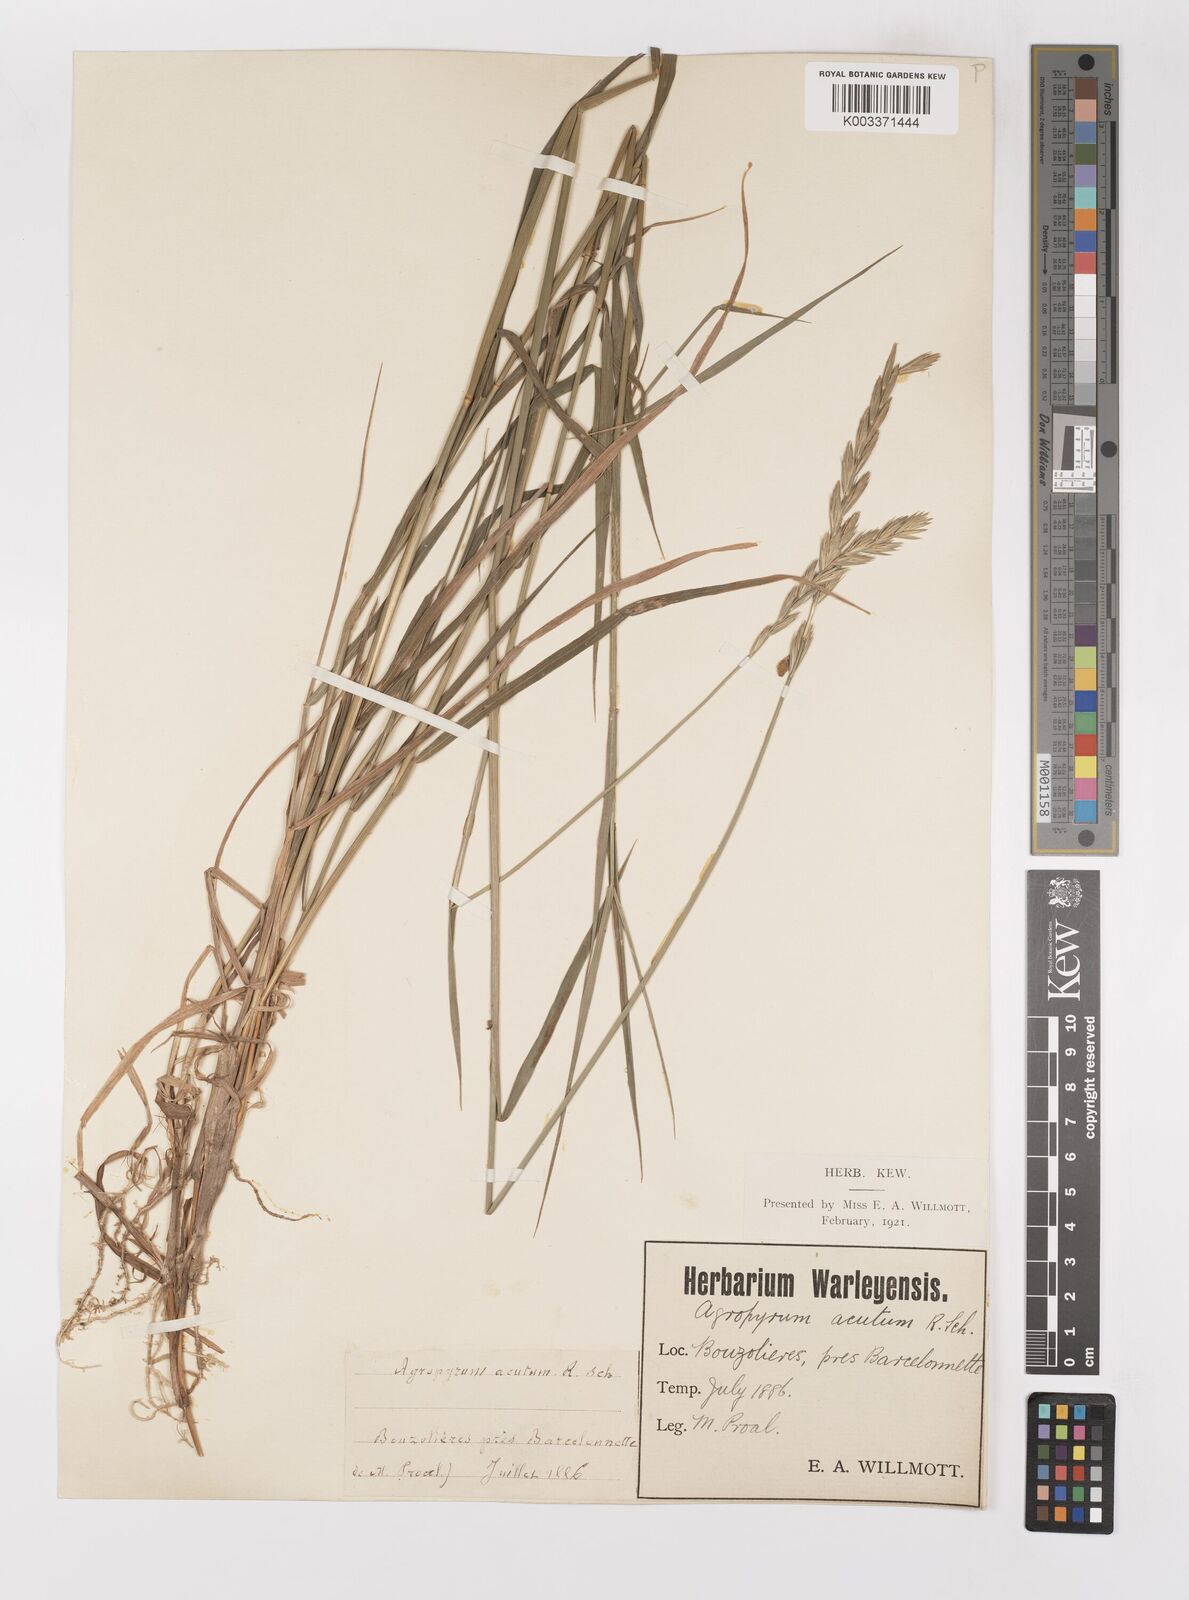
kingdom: Plantae
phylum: Tracheophyta
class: Liliopsida
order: Poales
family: Poaceae
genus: Elymus
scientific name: Elymus repens
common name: Quackgrass
